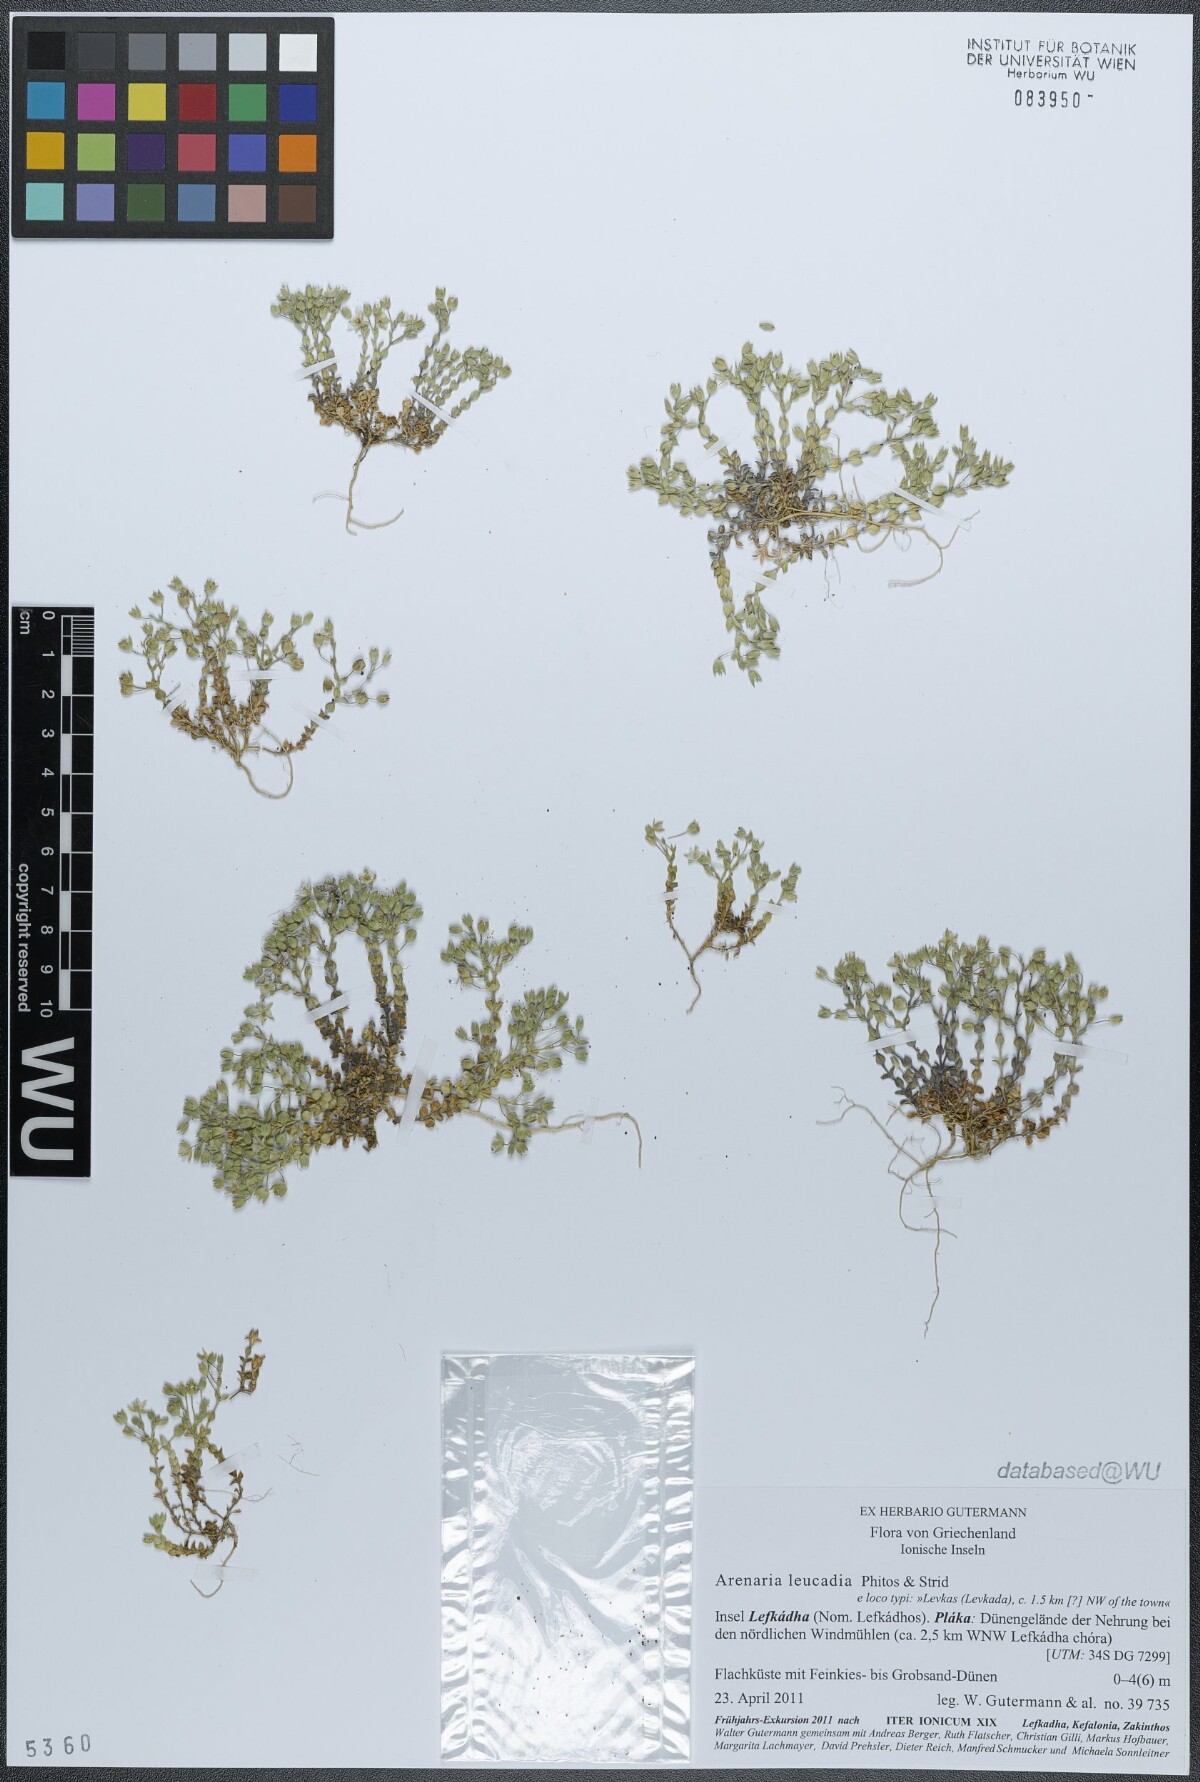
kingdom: Plantae
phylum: Tracheophyta
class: Magnoliopsida
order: Caryophyllales
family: Caryophyllaceae
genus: Arenaria
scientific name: Arenaria leucadia
